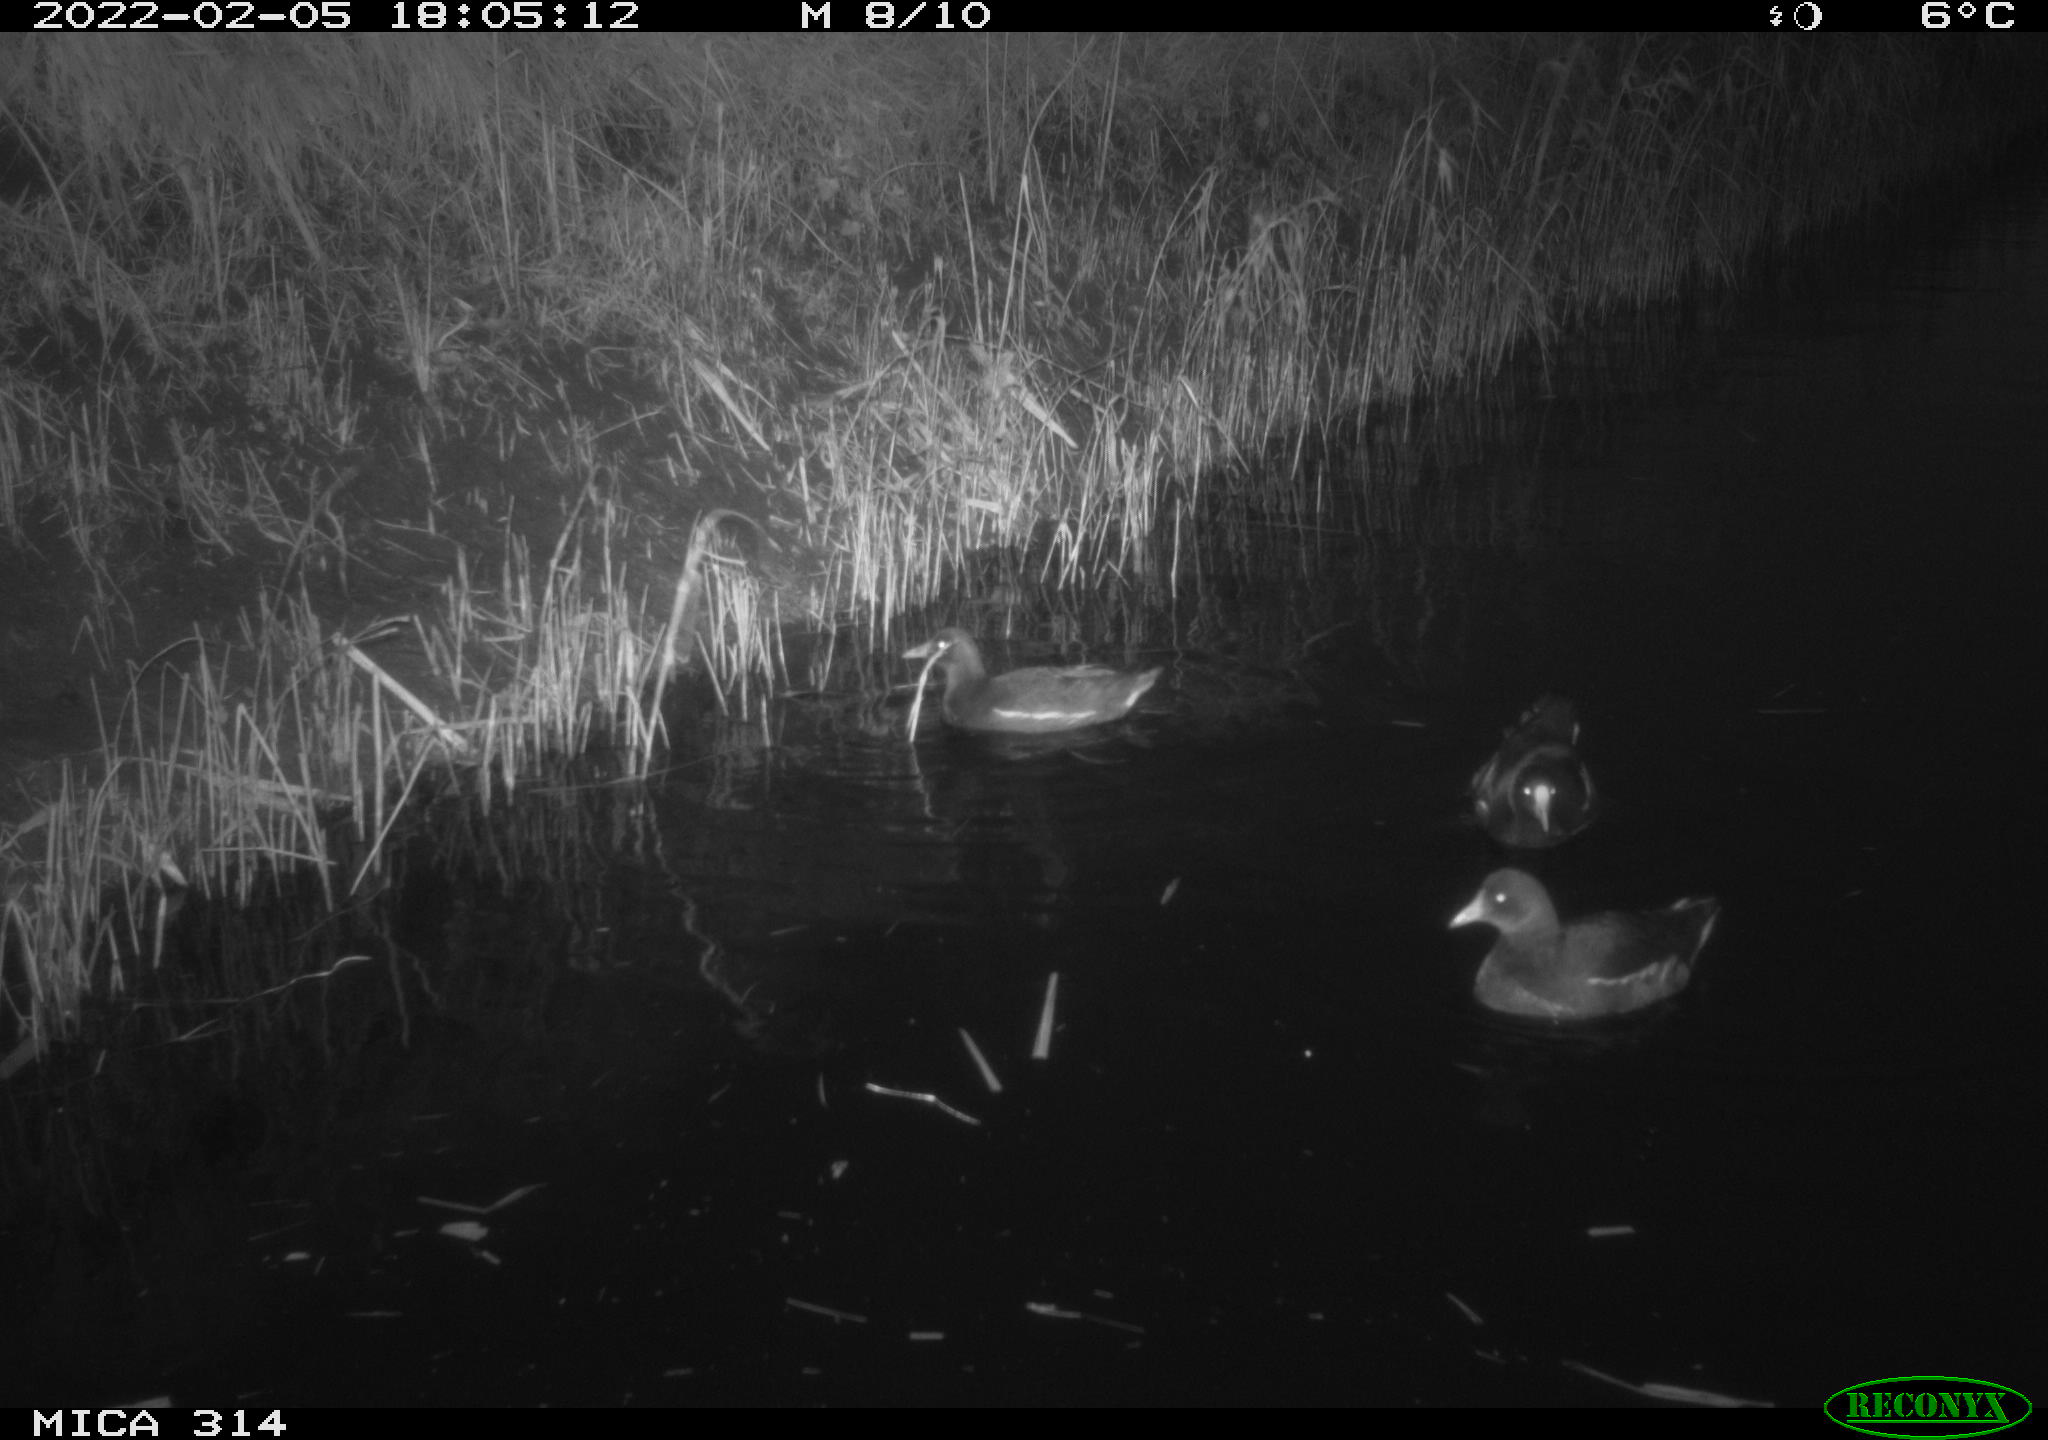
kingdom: Animalia
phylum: Chordata
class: Aves
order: Gruiformes
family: Rallidae
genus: Gallinula
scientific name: Gallinula chloropus
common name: Common moorhen
